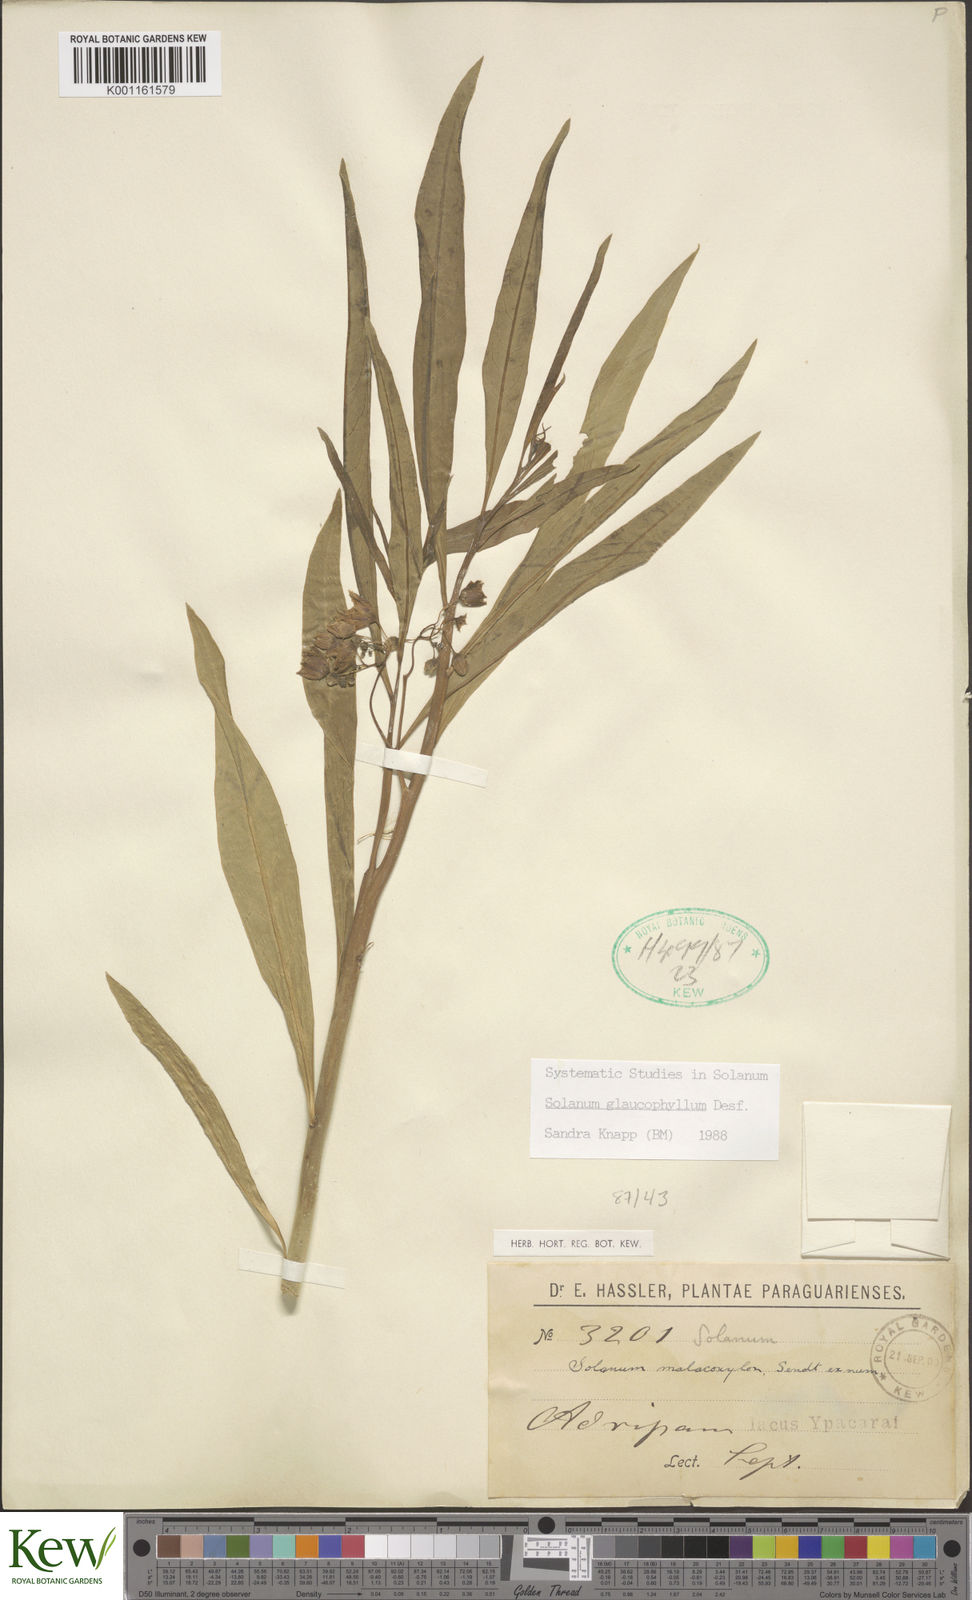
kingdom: Plantae
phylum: Tracheophyta
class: Magnoliopsida
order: Solanales
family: Solanaceae
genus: Solanum
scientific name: Solanum glaucophyllum
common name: Waxyleaf nightshade
